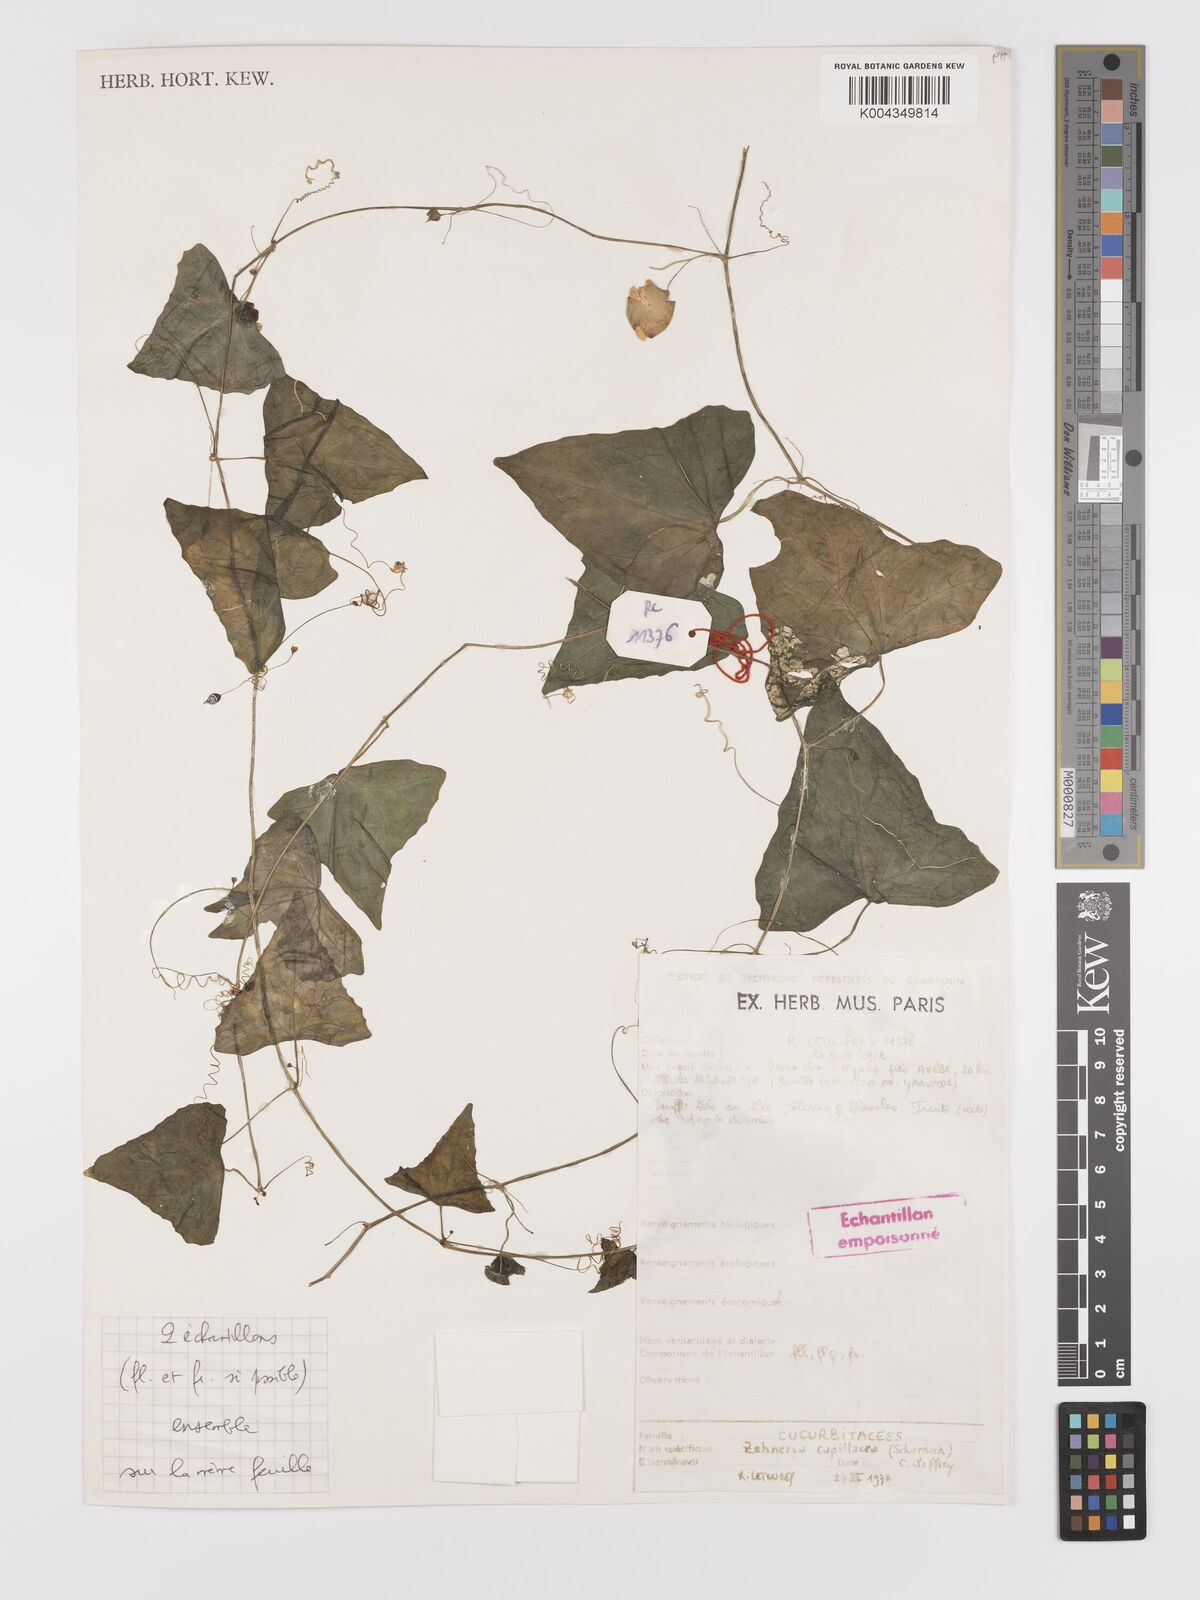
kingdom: Plantae
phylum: Tracheophyta
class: Magnoliopsida
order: Cucurbitales
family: Cucurbitaceae
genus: Zehneria
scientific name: Zehneria capillacea
